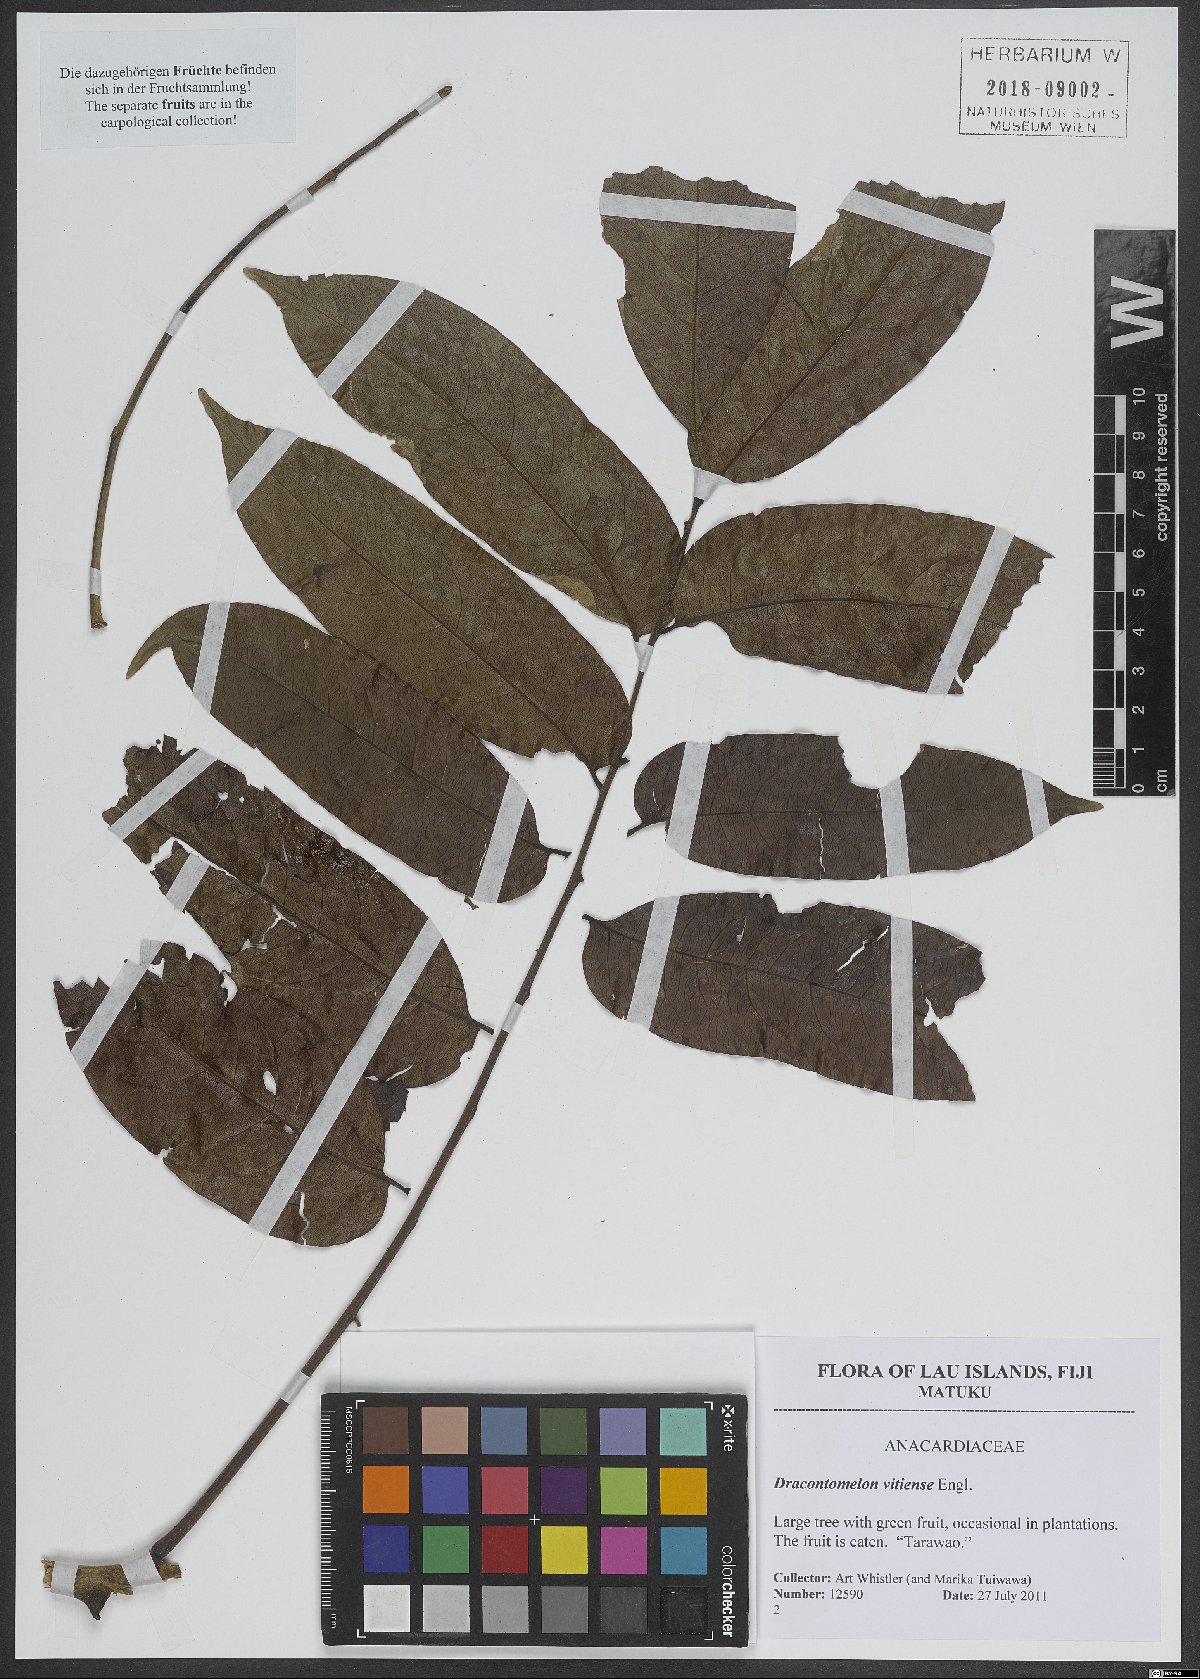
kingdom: Plantae
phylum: Tracheophyta
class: Magnoliopsida
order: Sapindales
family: Anacardiaceae
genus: Dracontomelon
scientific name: Dracontomelon vitiense
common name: Dragon plum
